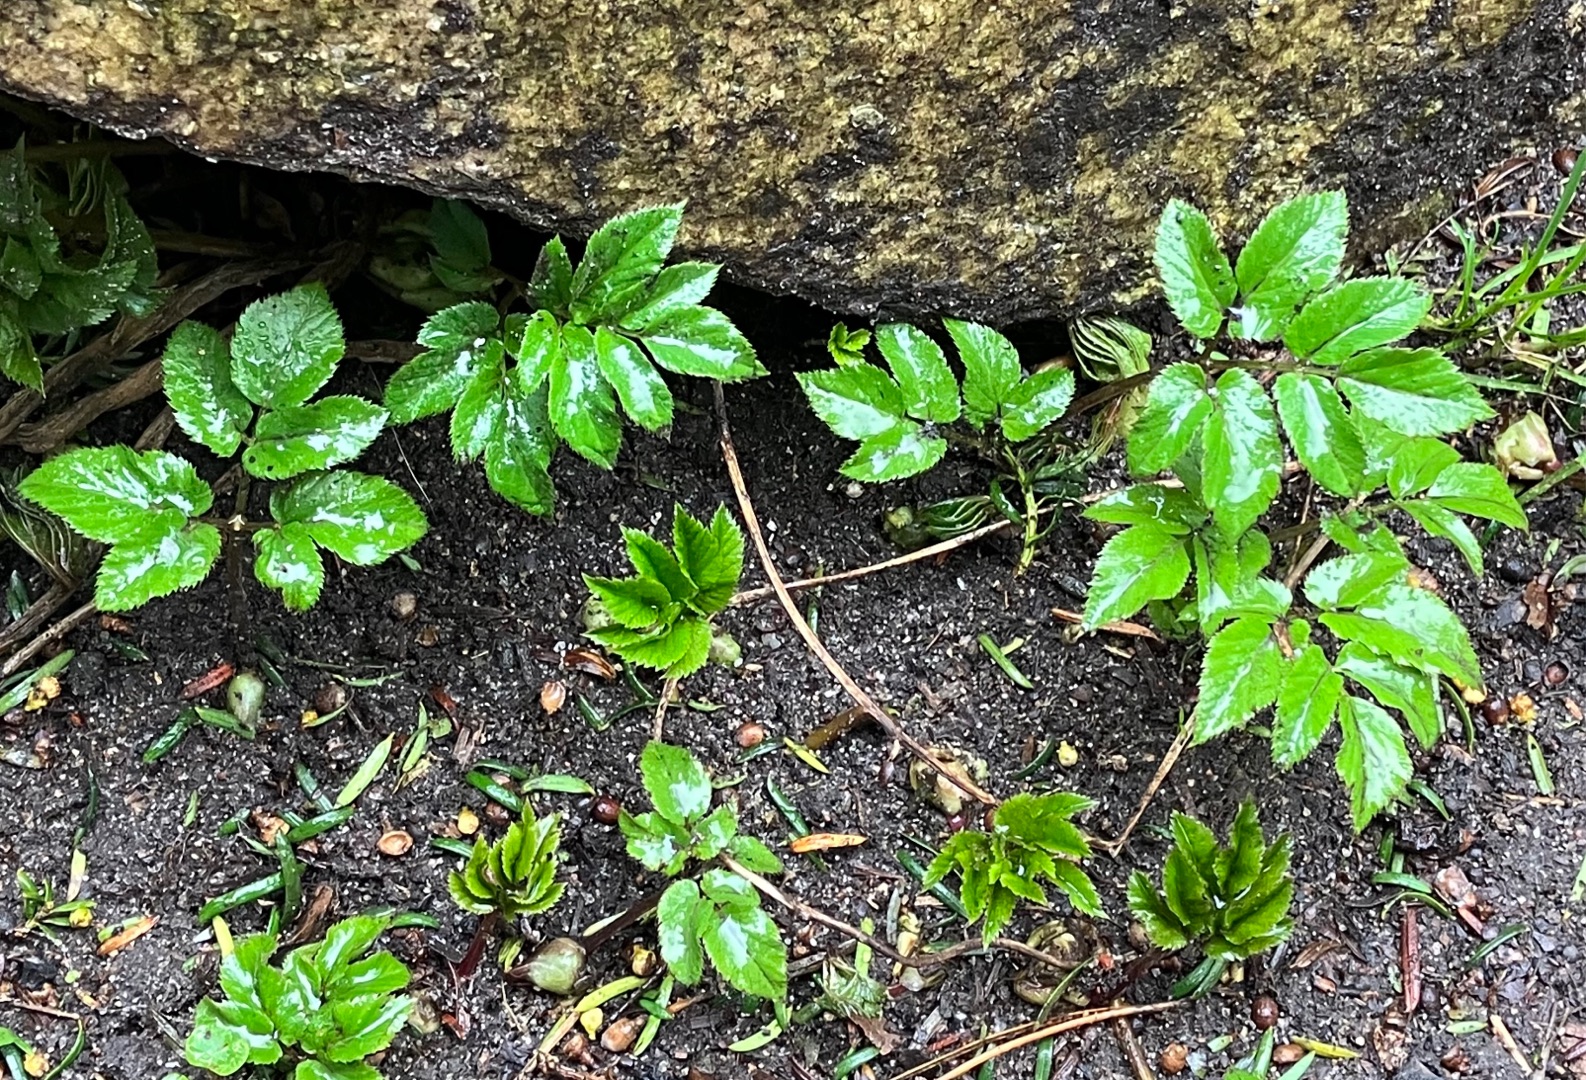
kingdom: Plantae
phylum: Tracheophyta
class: Magnoliopsida
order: Apiales
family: Apiaceae
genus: Aegopodium
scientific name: Aegopodium podagraria
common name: Skvalderkål
